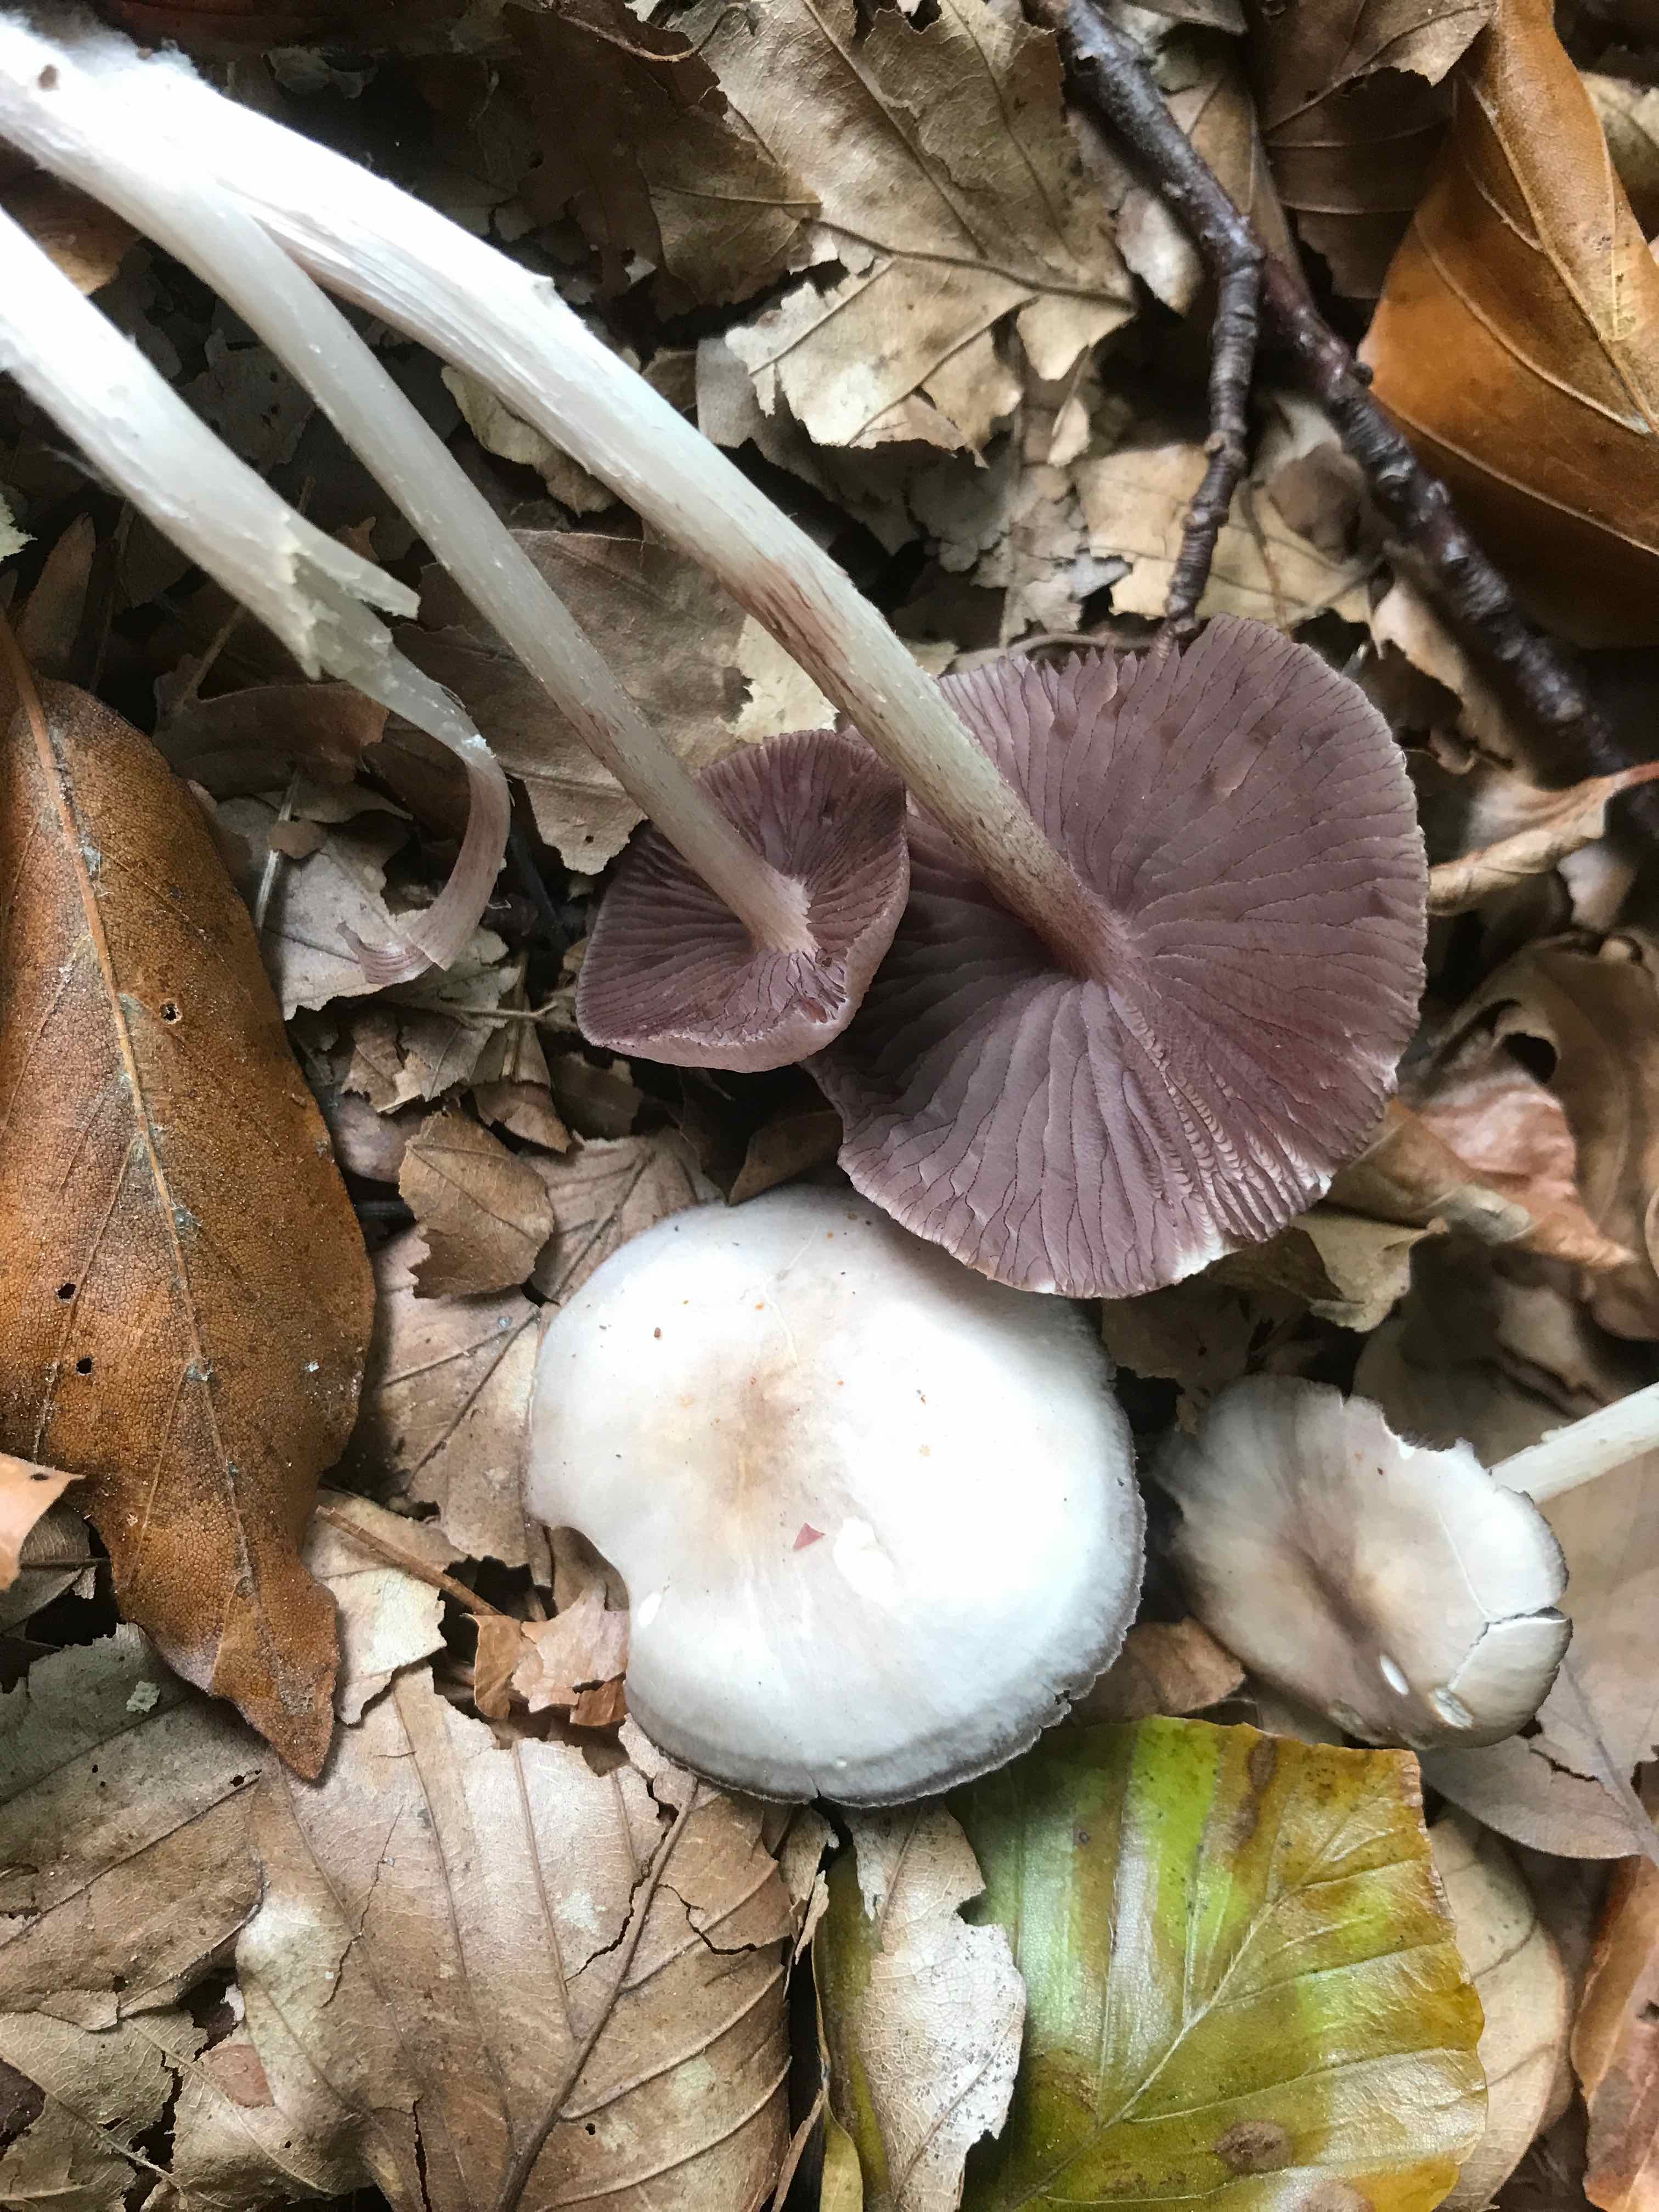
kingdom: Fungi
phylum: Basidiomycota
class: Agaricomycetes
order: Agaricales
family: Mycenaceae
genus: Mycena
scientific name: Mycena pelianthina
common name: mørkbladet huesvamp
